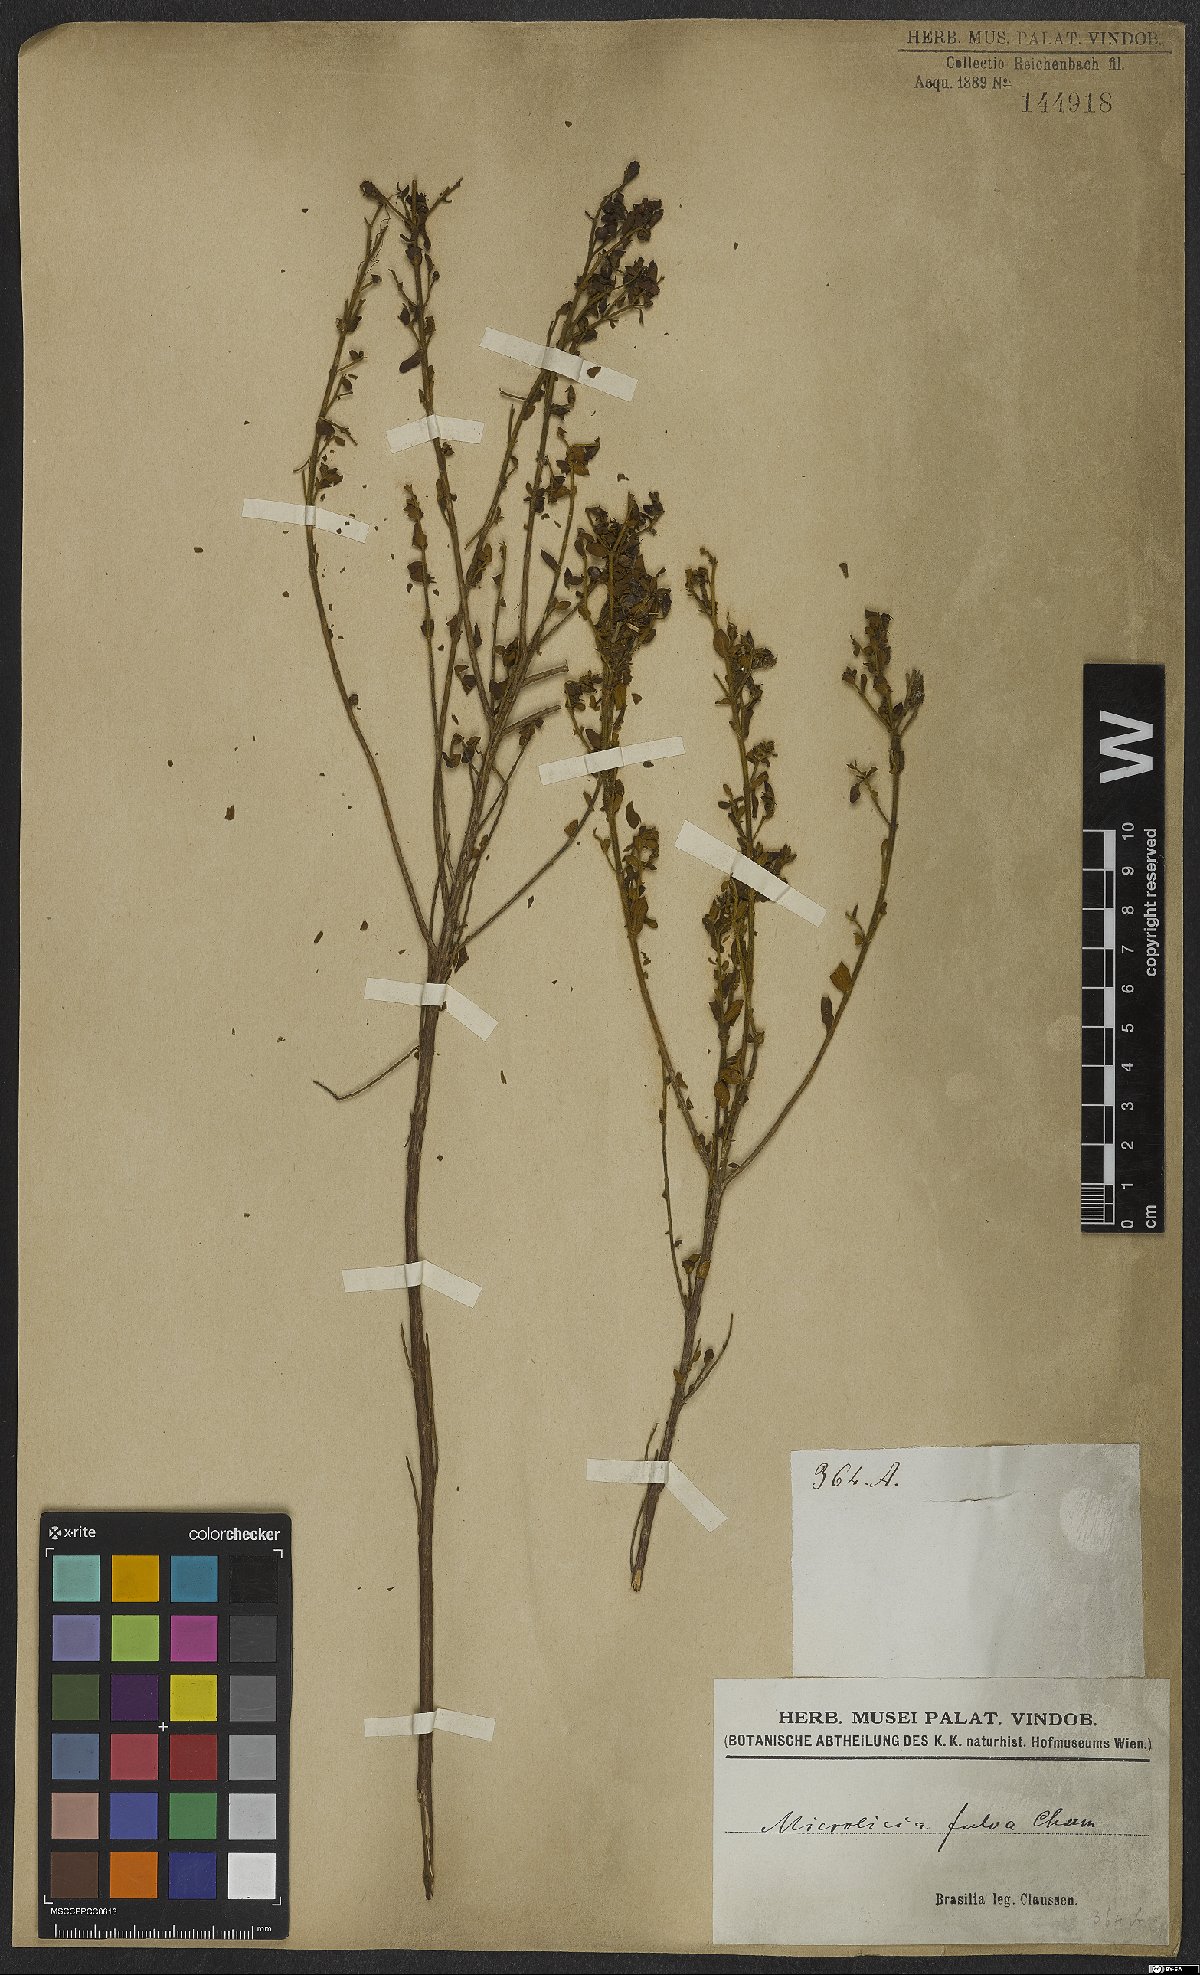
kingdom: Plantae
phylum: Tracheophyta
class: Magnoliopsida
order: Myrtales
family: Melastomataceae
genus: Microlicia
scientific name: Microlicia fulva
